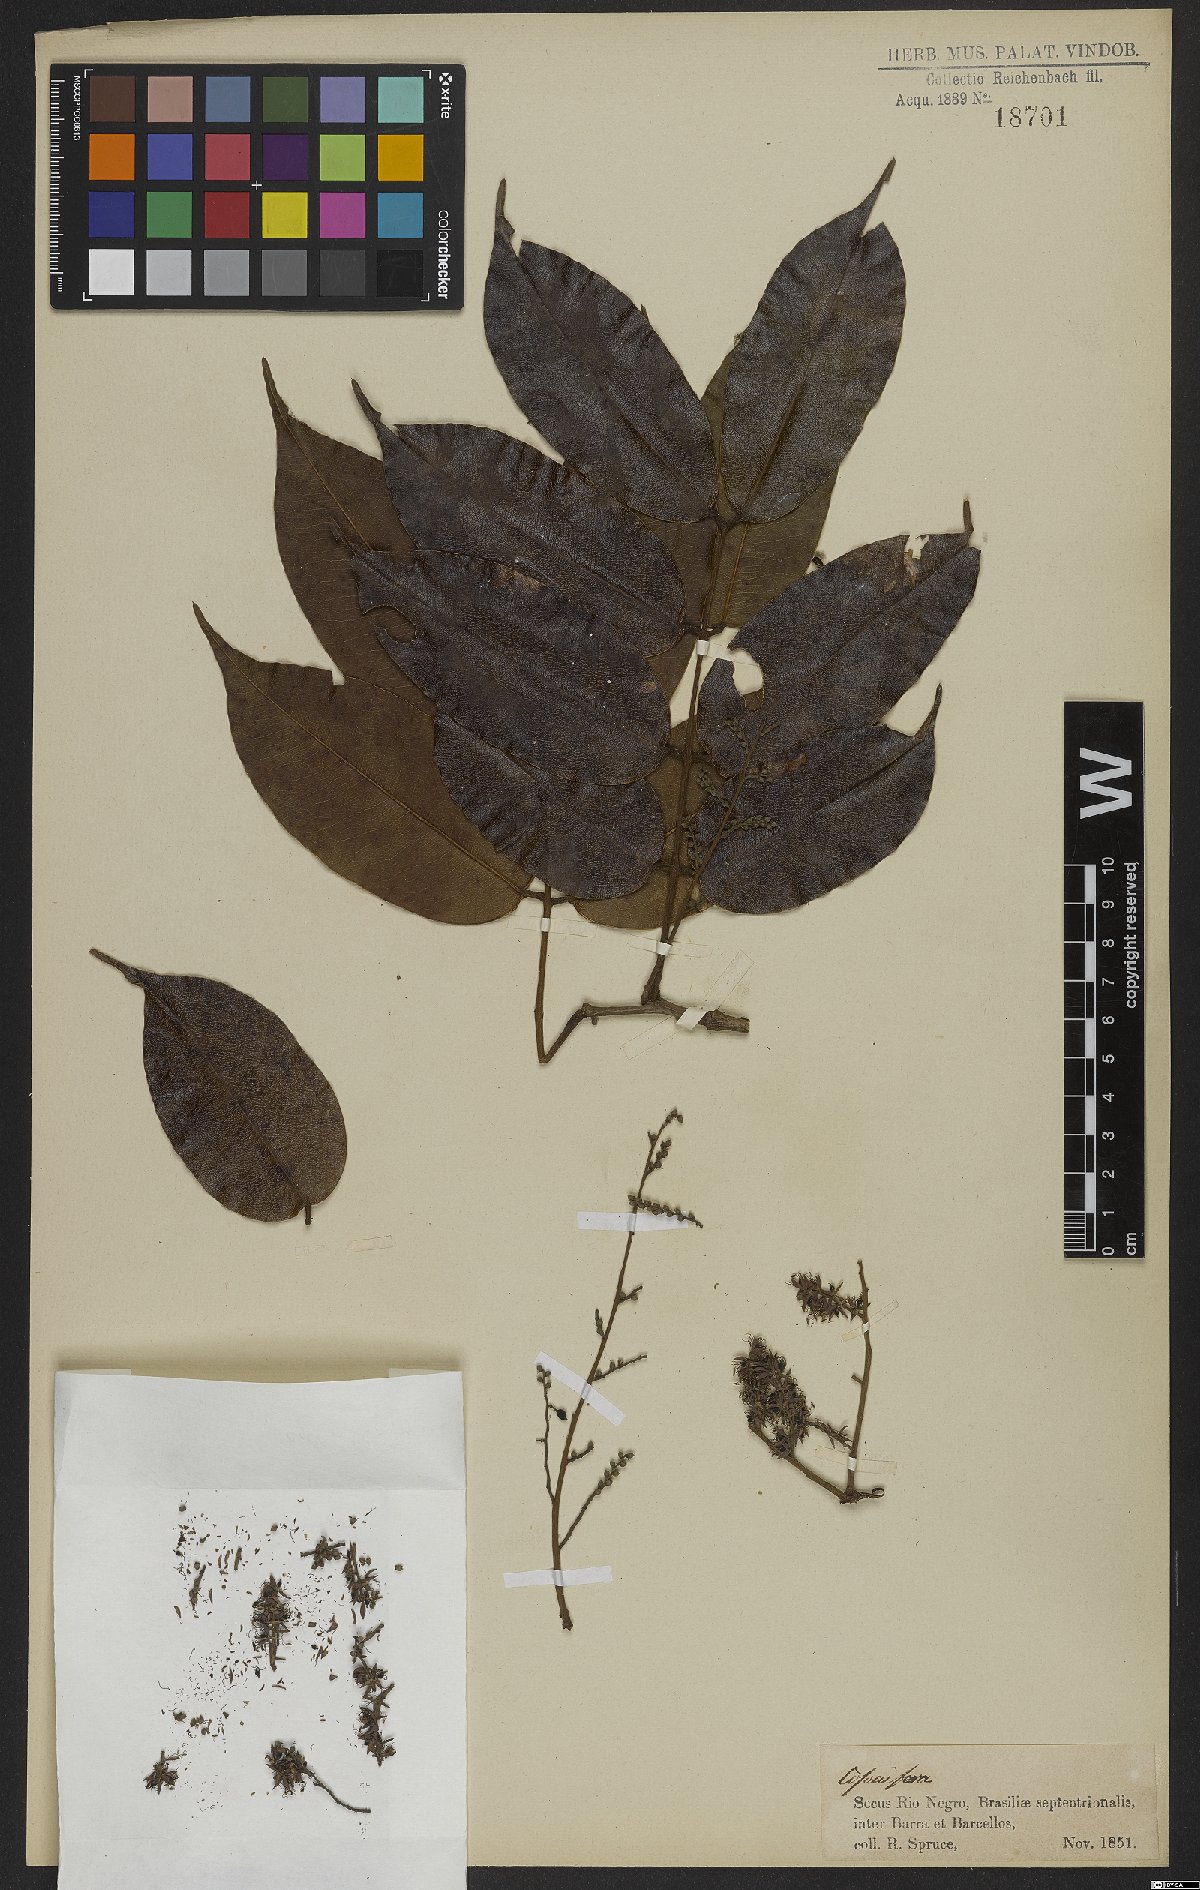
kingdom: Plantae
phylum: Tracheophyta
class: Magnoliopsida
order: Fabales
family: Fabaceae
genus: Copaifera
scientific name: Copaifera martii
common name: Copaiba
